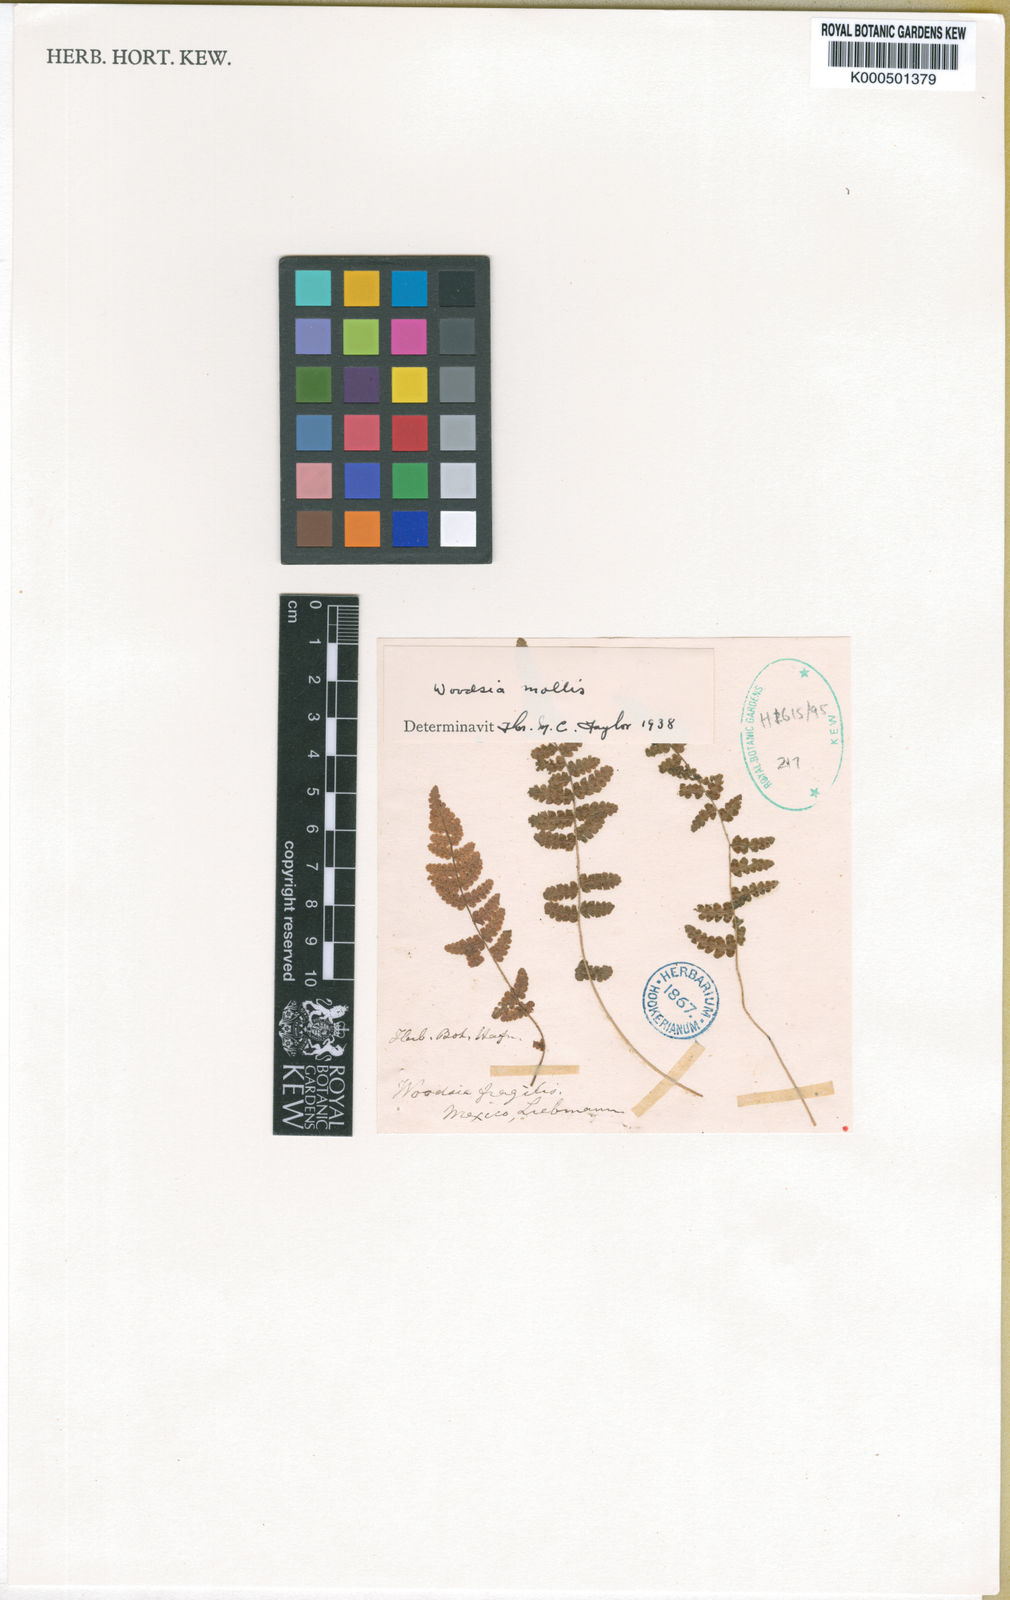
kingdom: Plantae
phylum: Tracheophyta
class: Polypodiopsida
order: Polypodiales
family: Woodsiaceae
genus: Physematium
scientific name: Physematium molle
